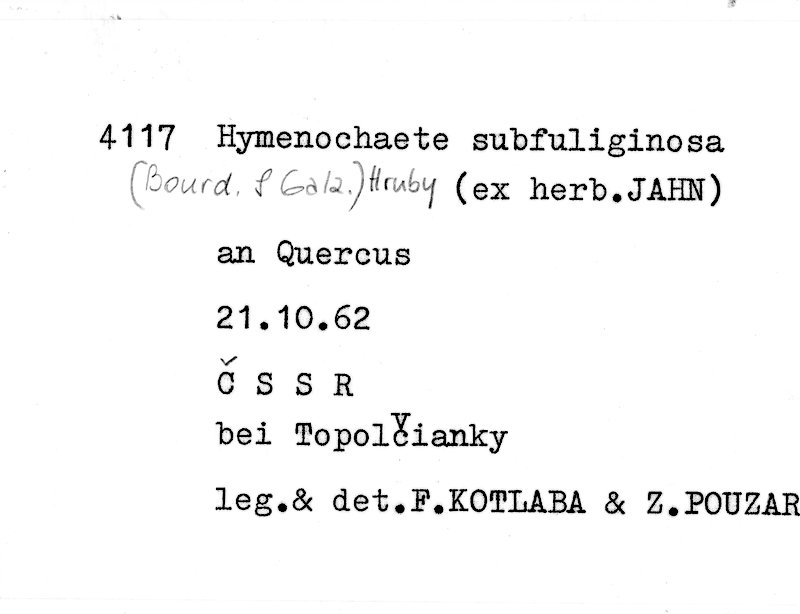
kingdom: Fungi
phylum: Basidiomycota
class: Agaricomycetes
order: Hymenochaetales
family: Hymenochaetaceae
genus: Hymenochaete
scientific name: Hymenochaete fuliginosa
